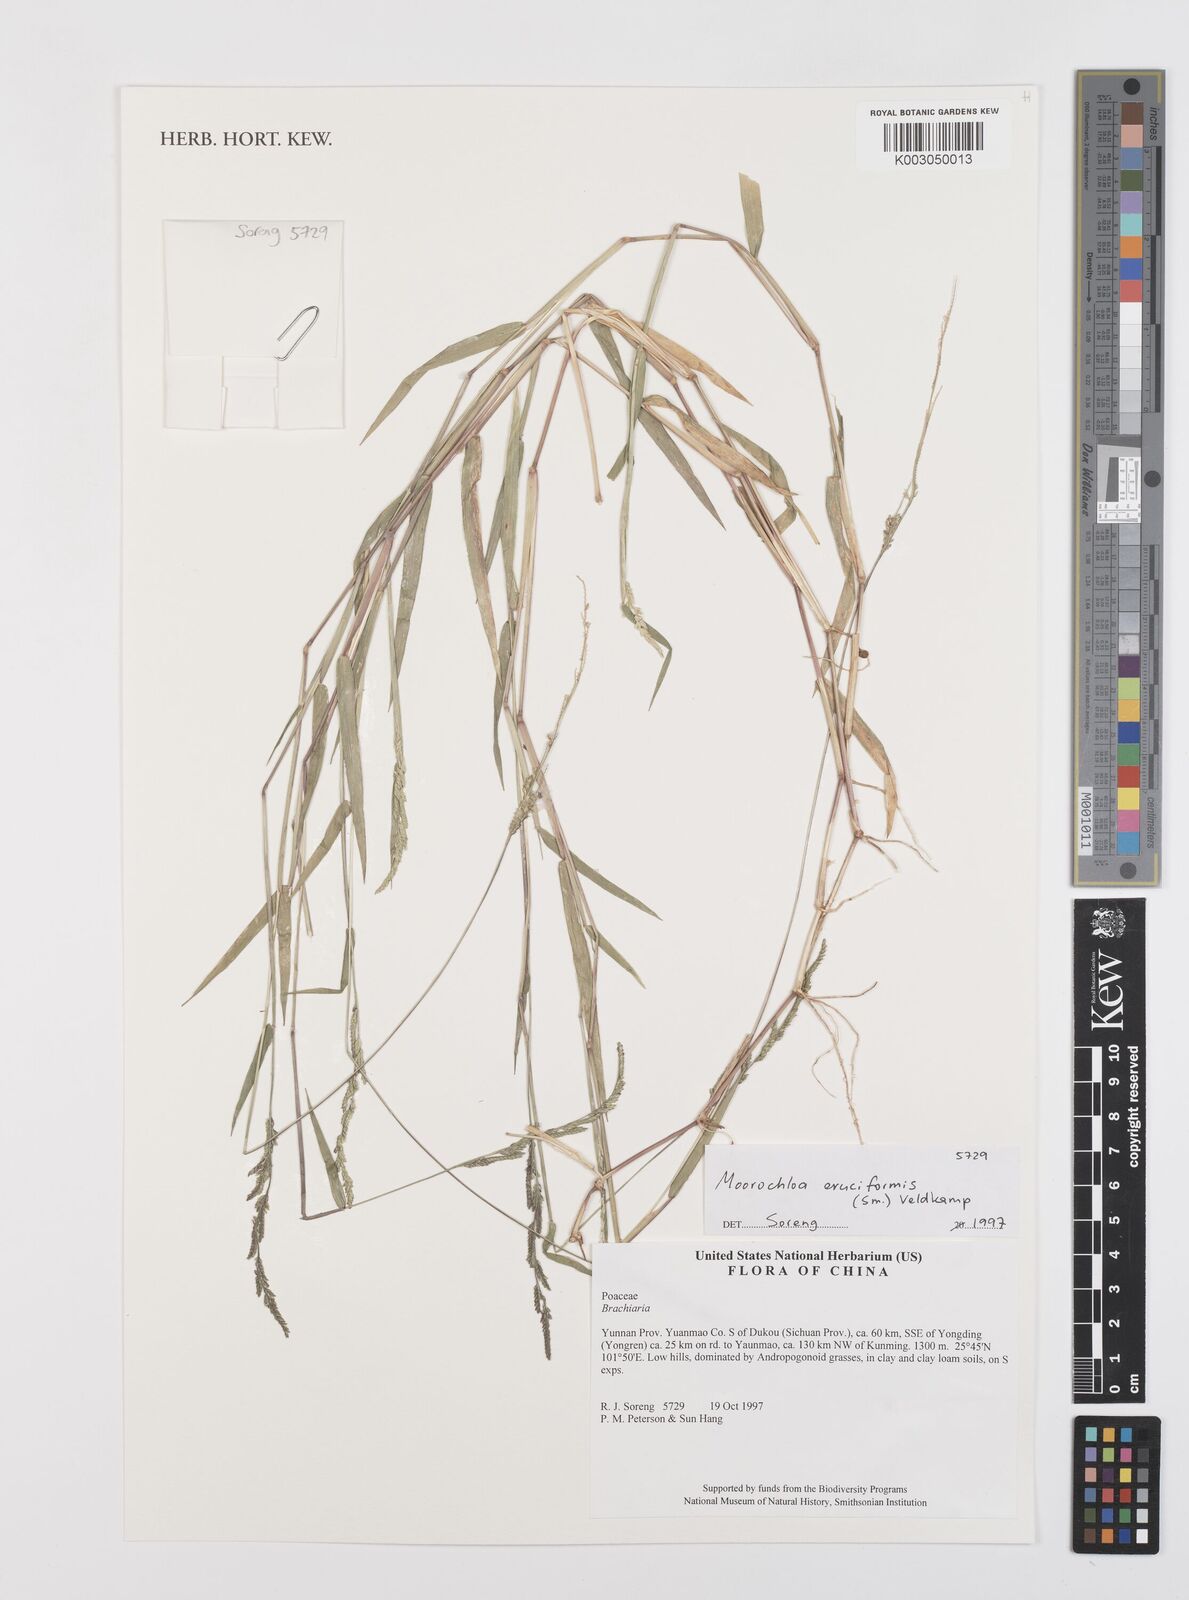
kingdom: Plantae
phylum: Tracheophyta
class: Liliopsida
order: Poales
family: Poaceae
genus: Moorochloa
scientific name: Moorochloa eruciformis
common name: Sweet signalgrass
